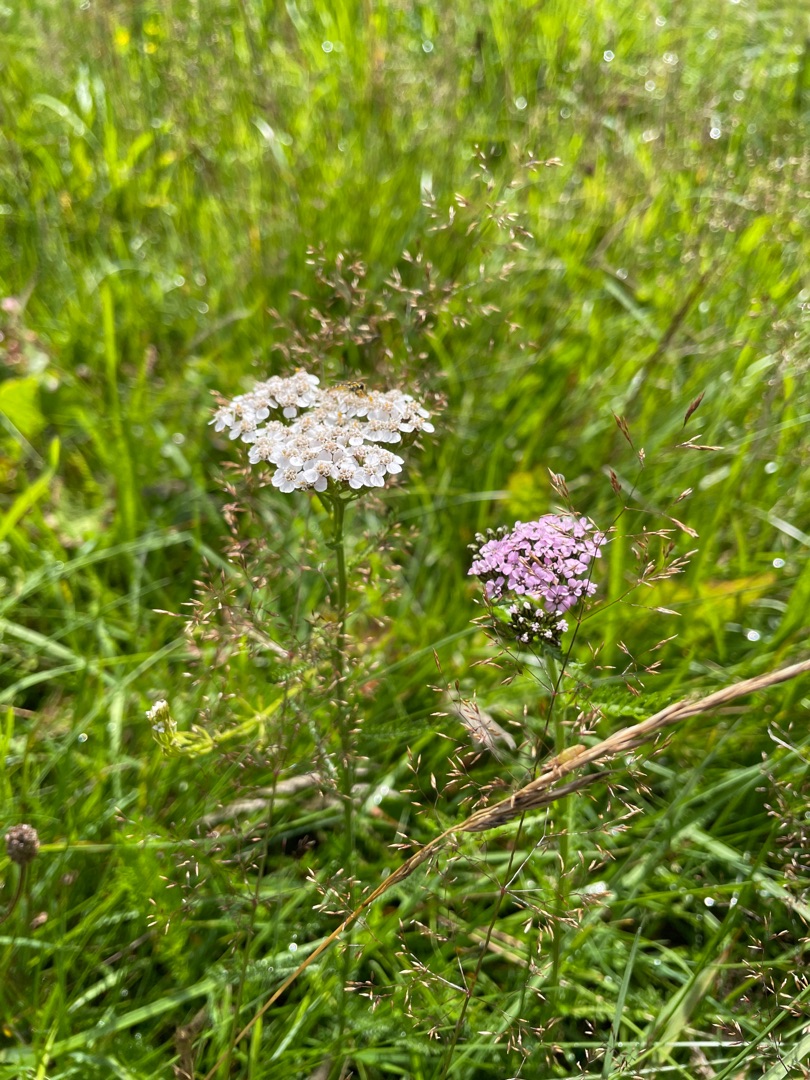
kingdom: Plantae
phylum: Tracheophyta
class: Magnoliopsida
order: Asterales
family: Asteraceae
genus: Achillea
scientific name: Achillea millefolium
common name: Almindelig røllike
